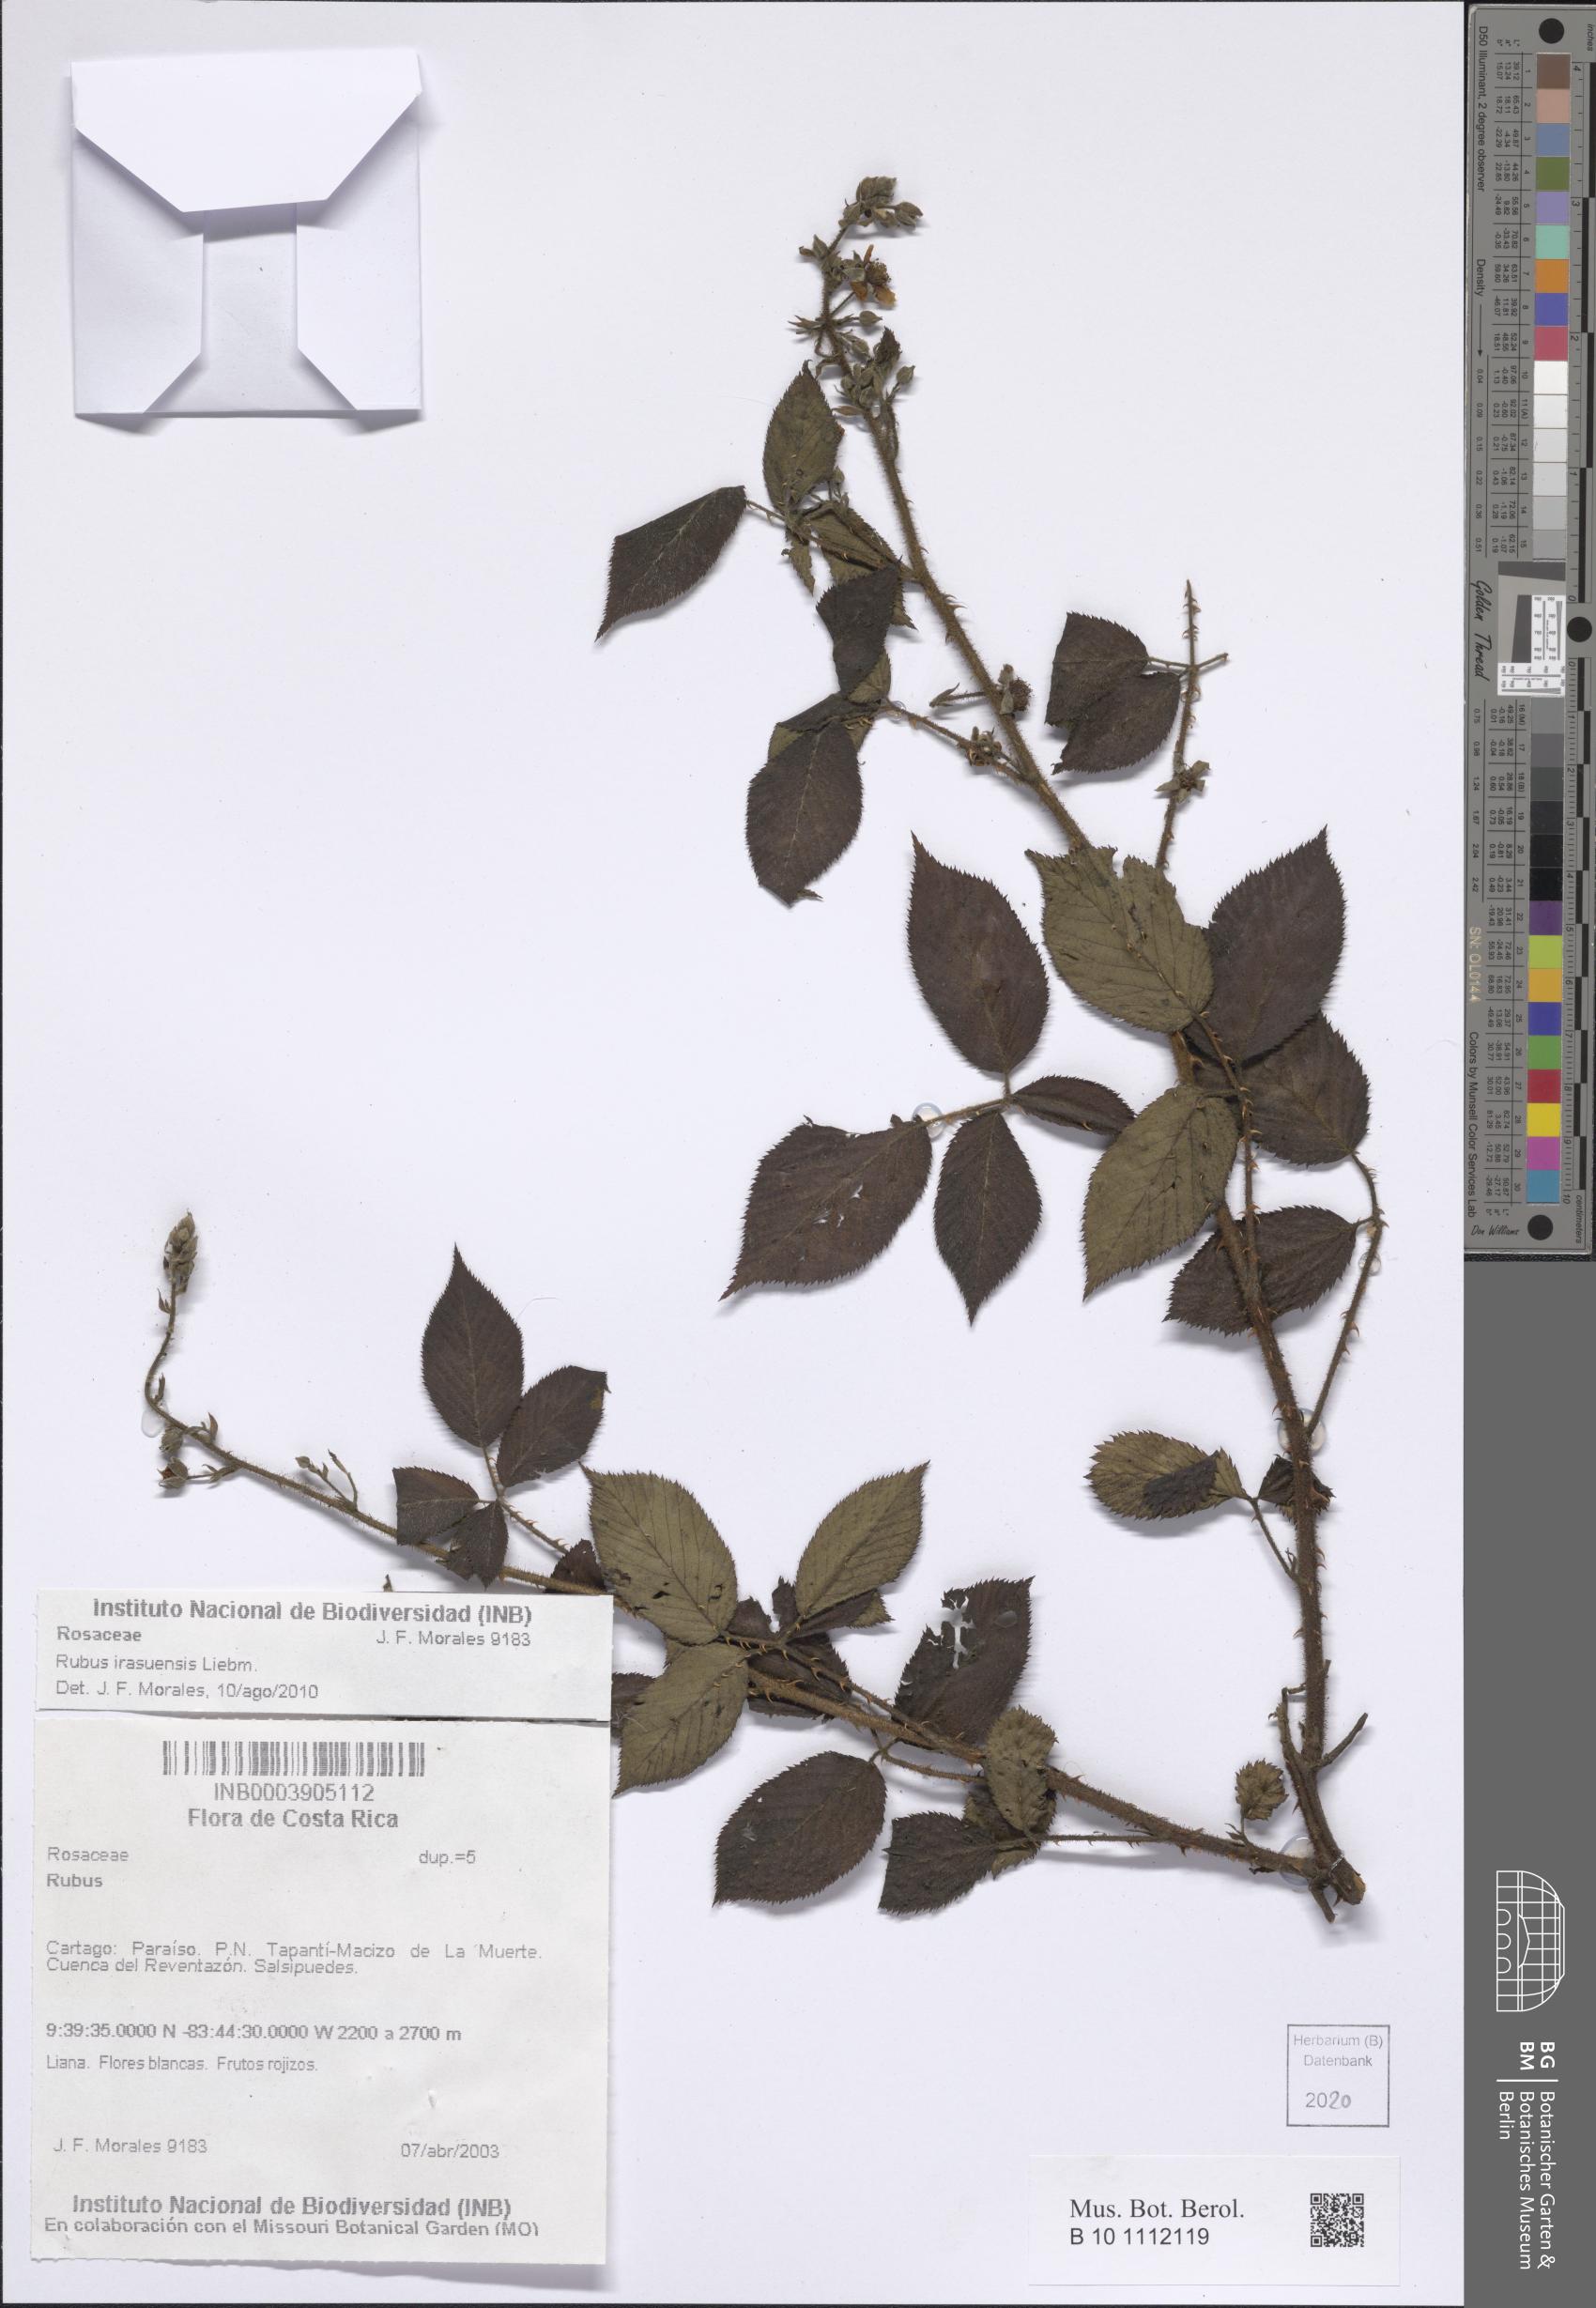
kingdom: Plantae
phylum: Tracheophyta
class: Magnoliopsida
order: Rosales
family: Rosaceae
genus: Rubus
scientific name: Rubus costaricanus
